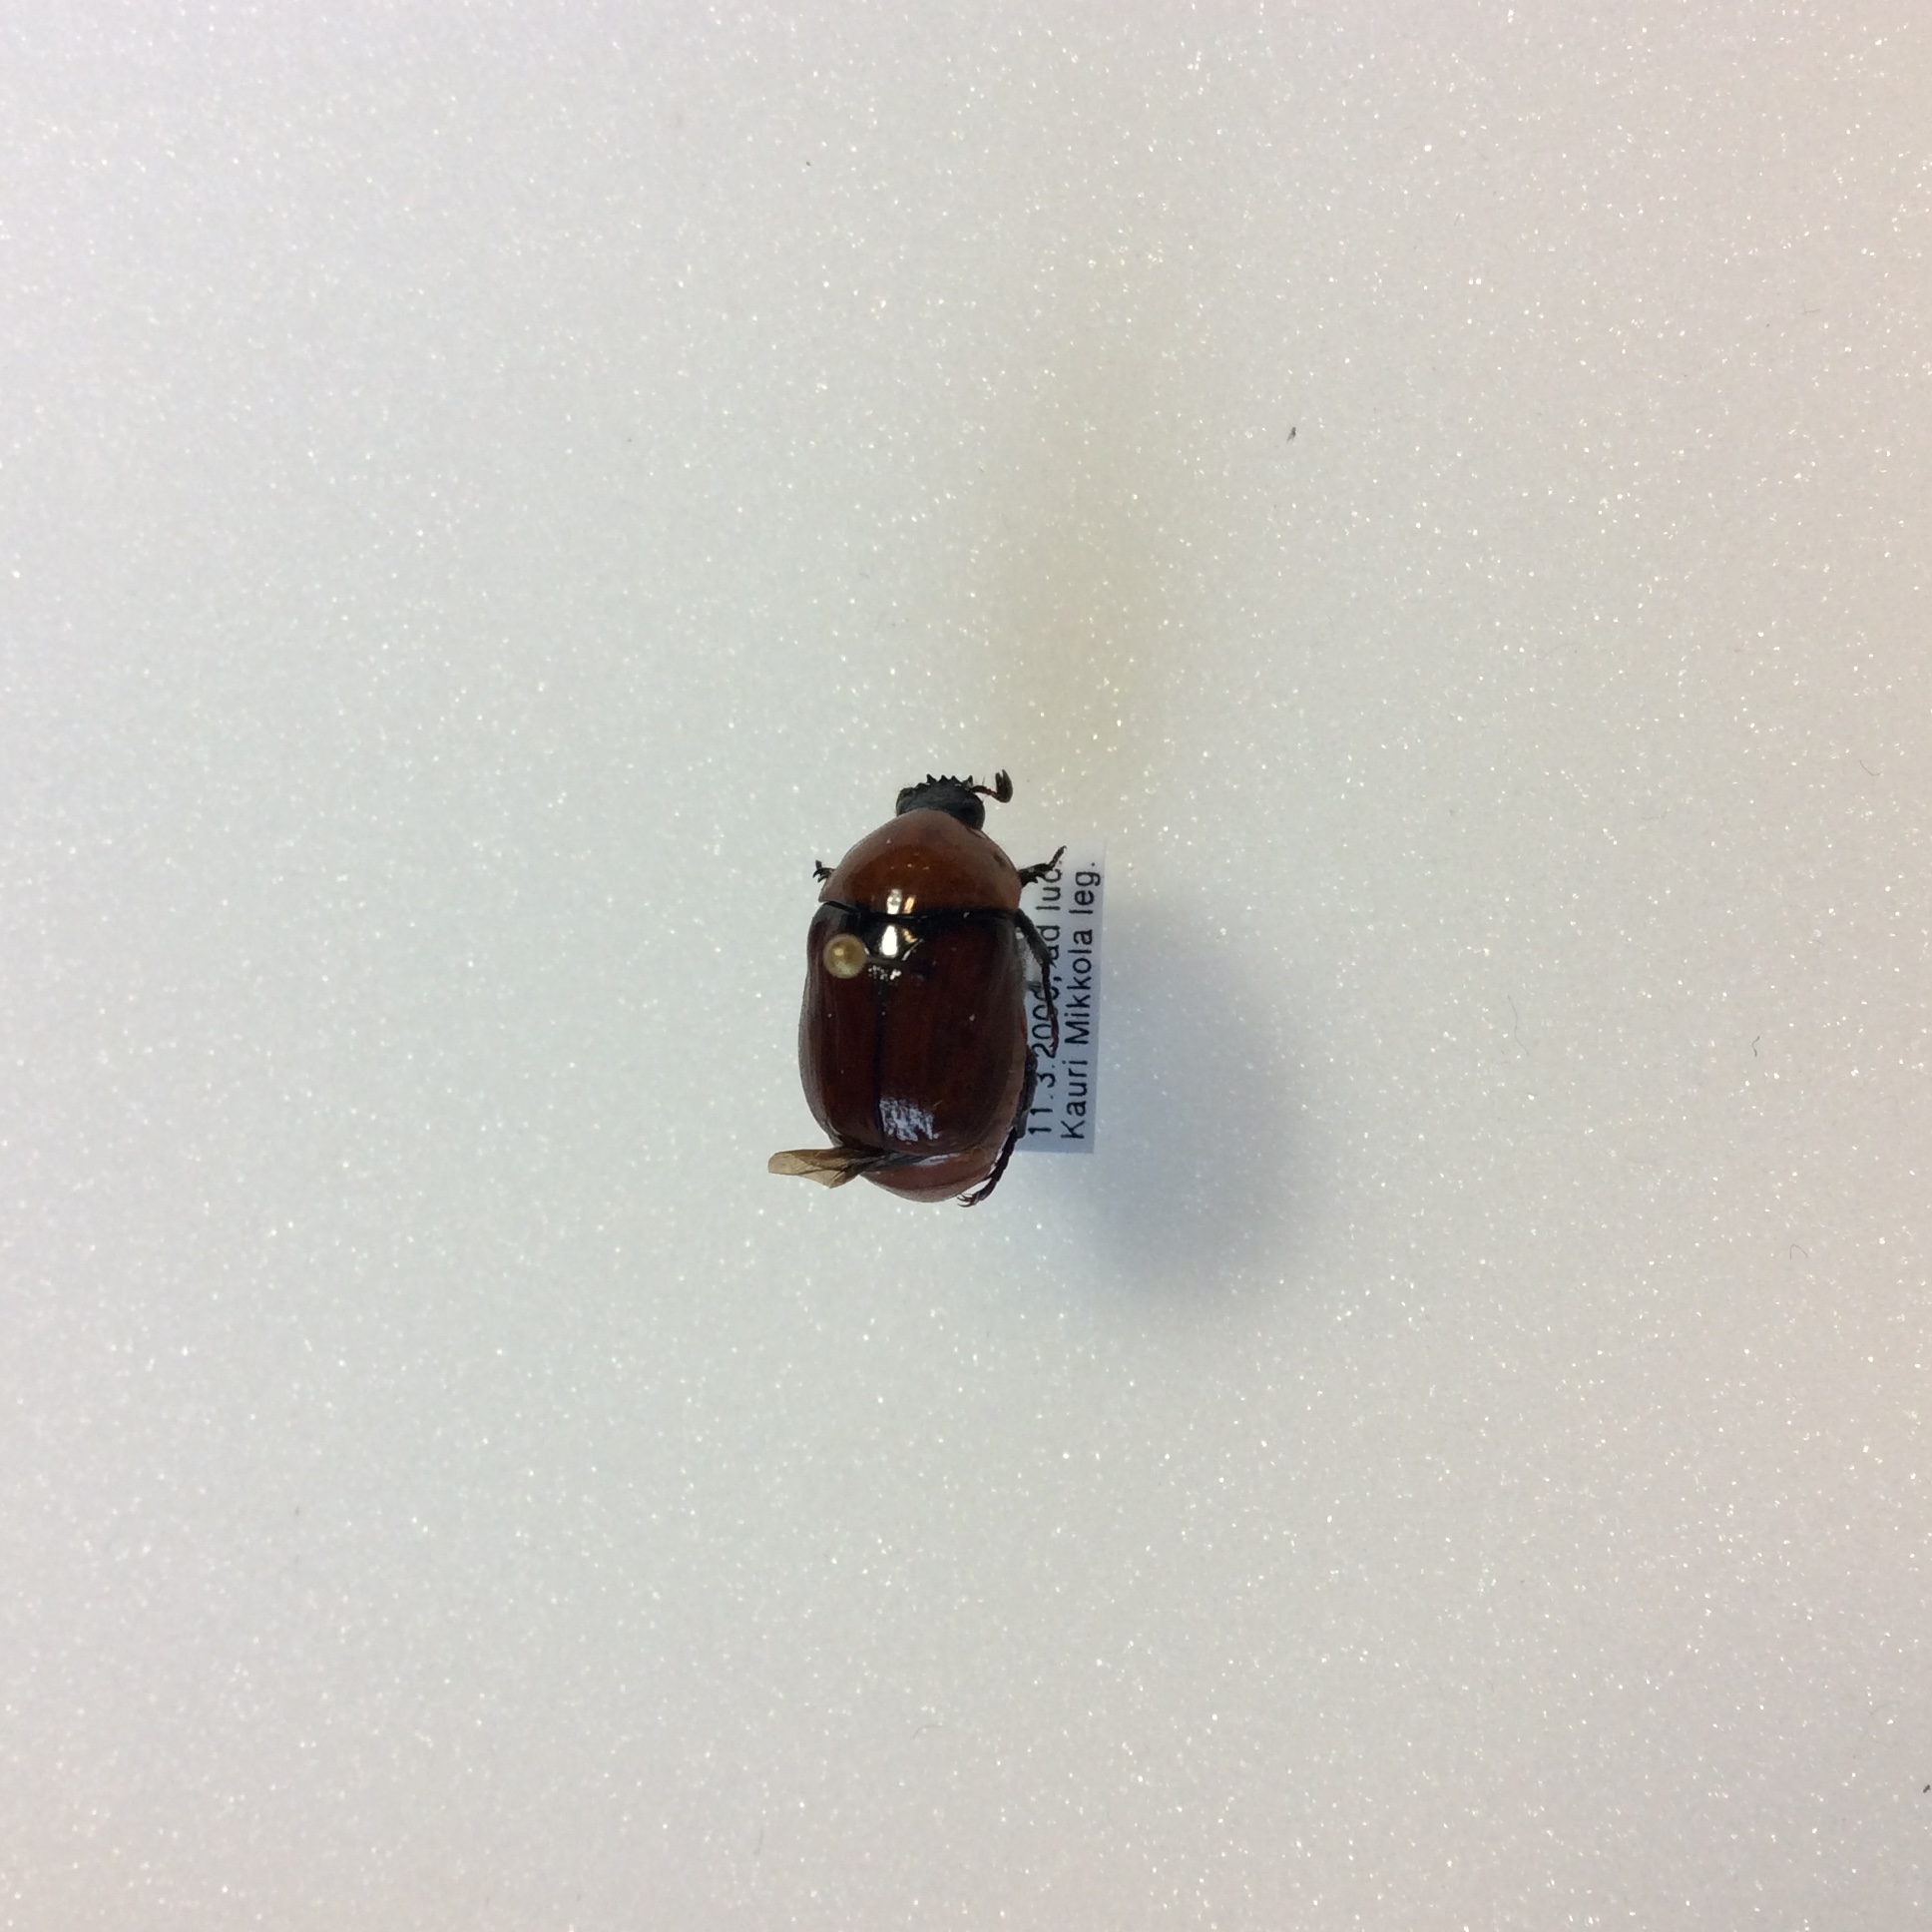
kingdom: Animalia
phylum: Arthropoda
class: Insecta
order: Coleoptera
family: Lucanidae
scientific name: Lucanidae
